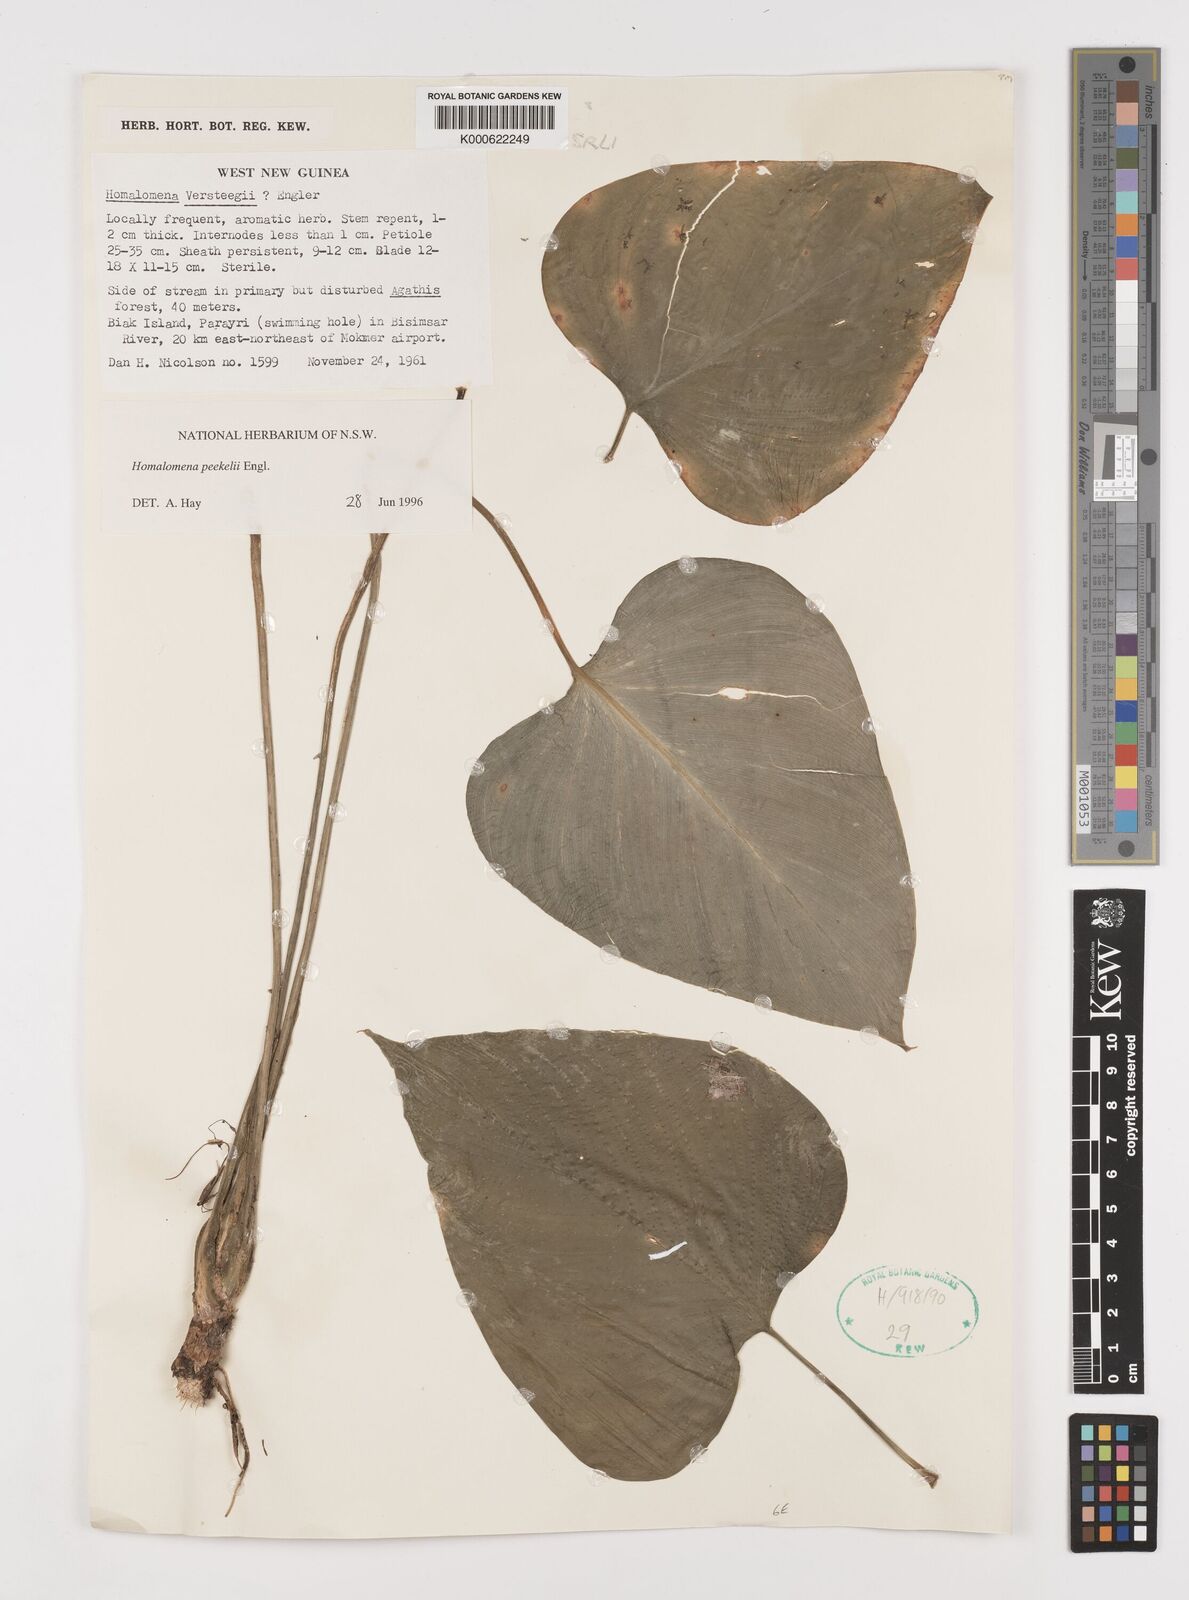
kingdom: Plantae
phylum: Tracheophyta
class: Liliopsida
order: Alismatales
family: Araceae
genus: Homalomena
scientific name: Homalomena peekelii
